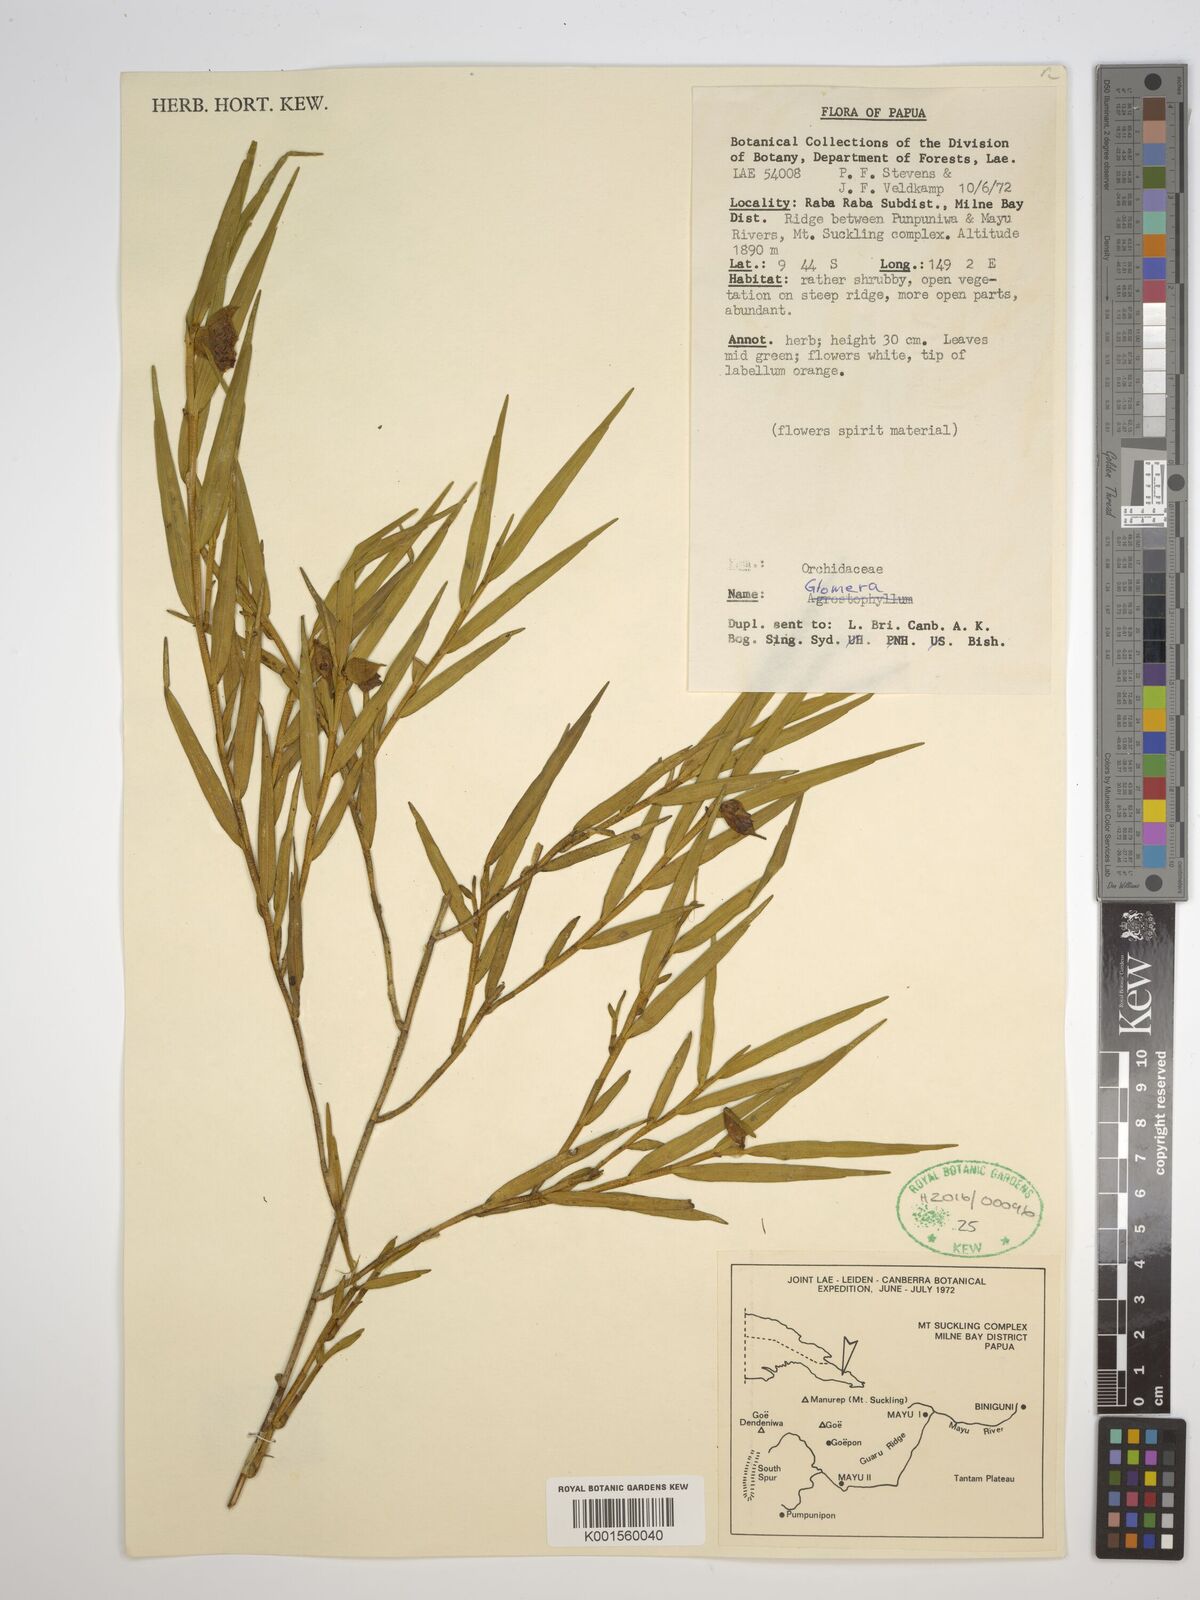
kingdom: Plantae
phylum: Tracheophyta
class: Liliopsida
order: Asparagales
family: Orchidaceae
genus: Glomera
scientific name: Glomera
